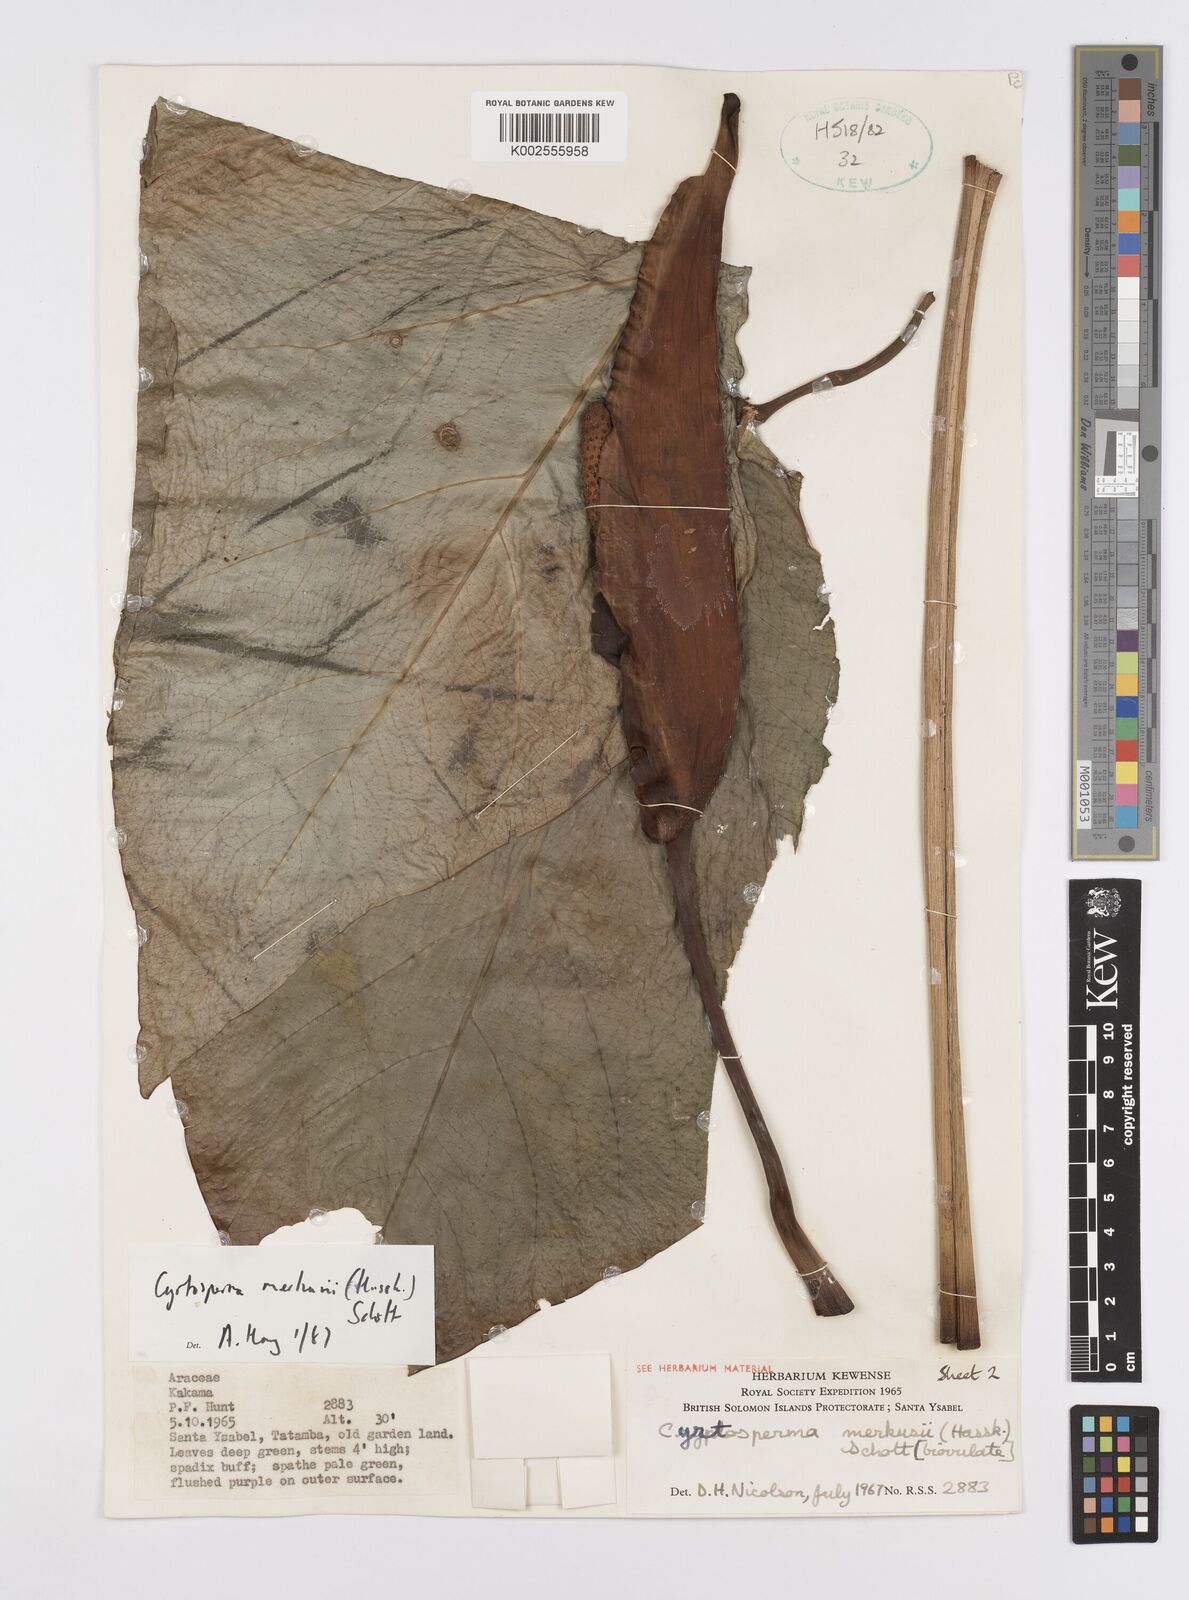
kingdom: Plantae
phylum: Tracheophyta
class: Liliopsida
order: Alismatales
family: Araceae
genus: Cyrtosperma
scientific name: Cyrtosperma merkusii
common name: Giant swamp-taro
